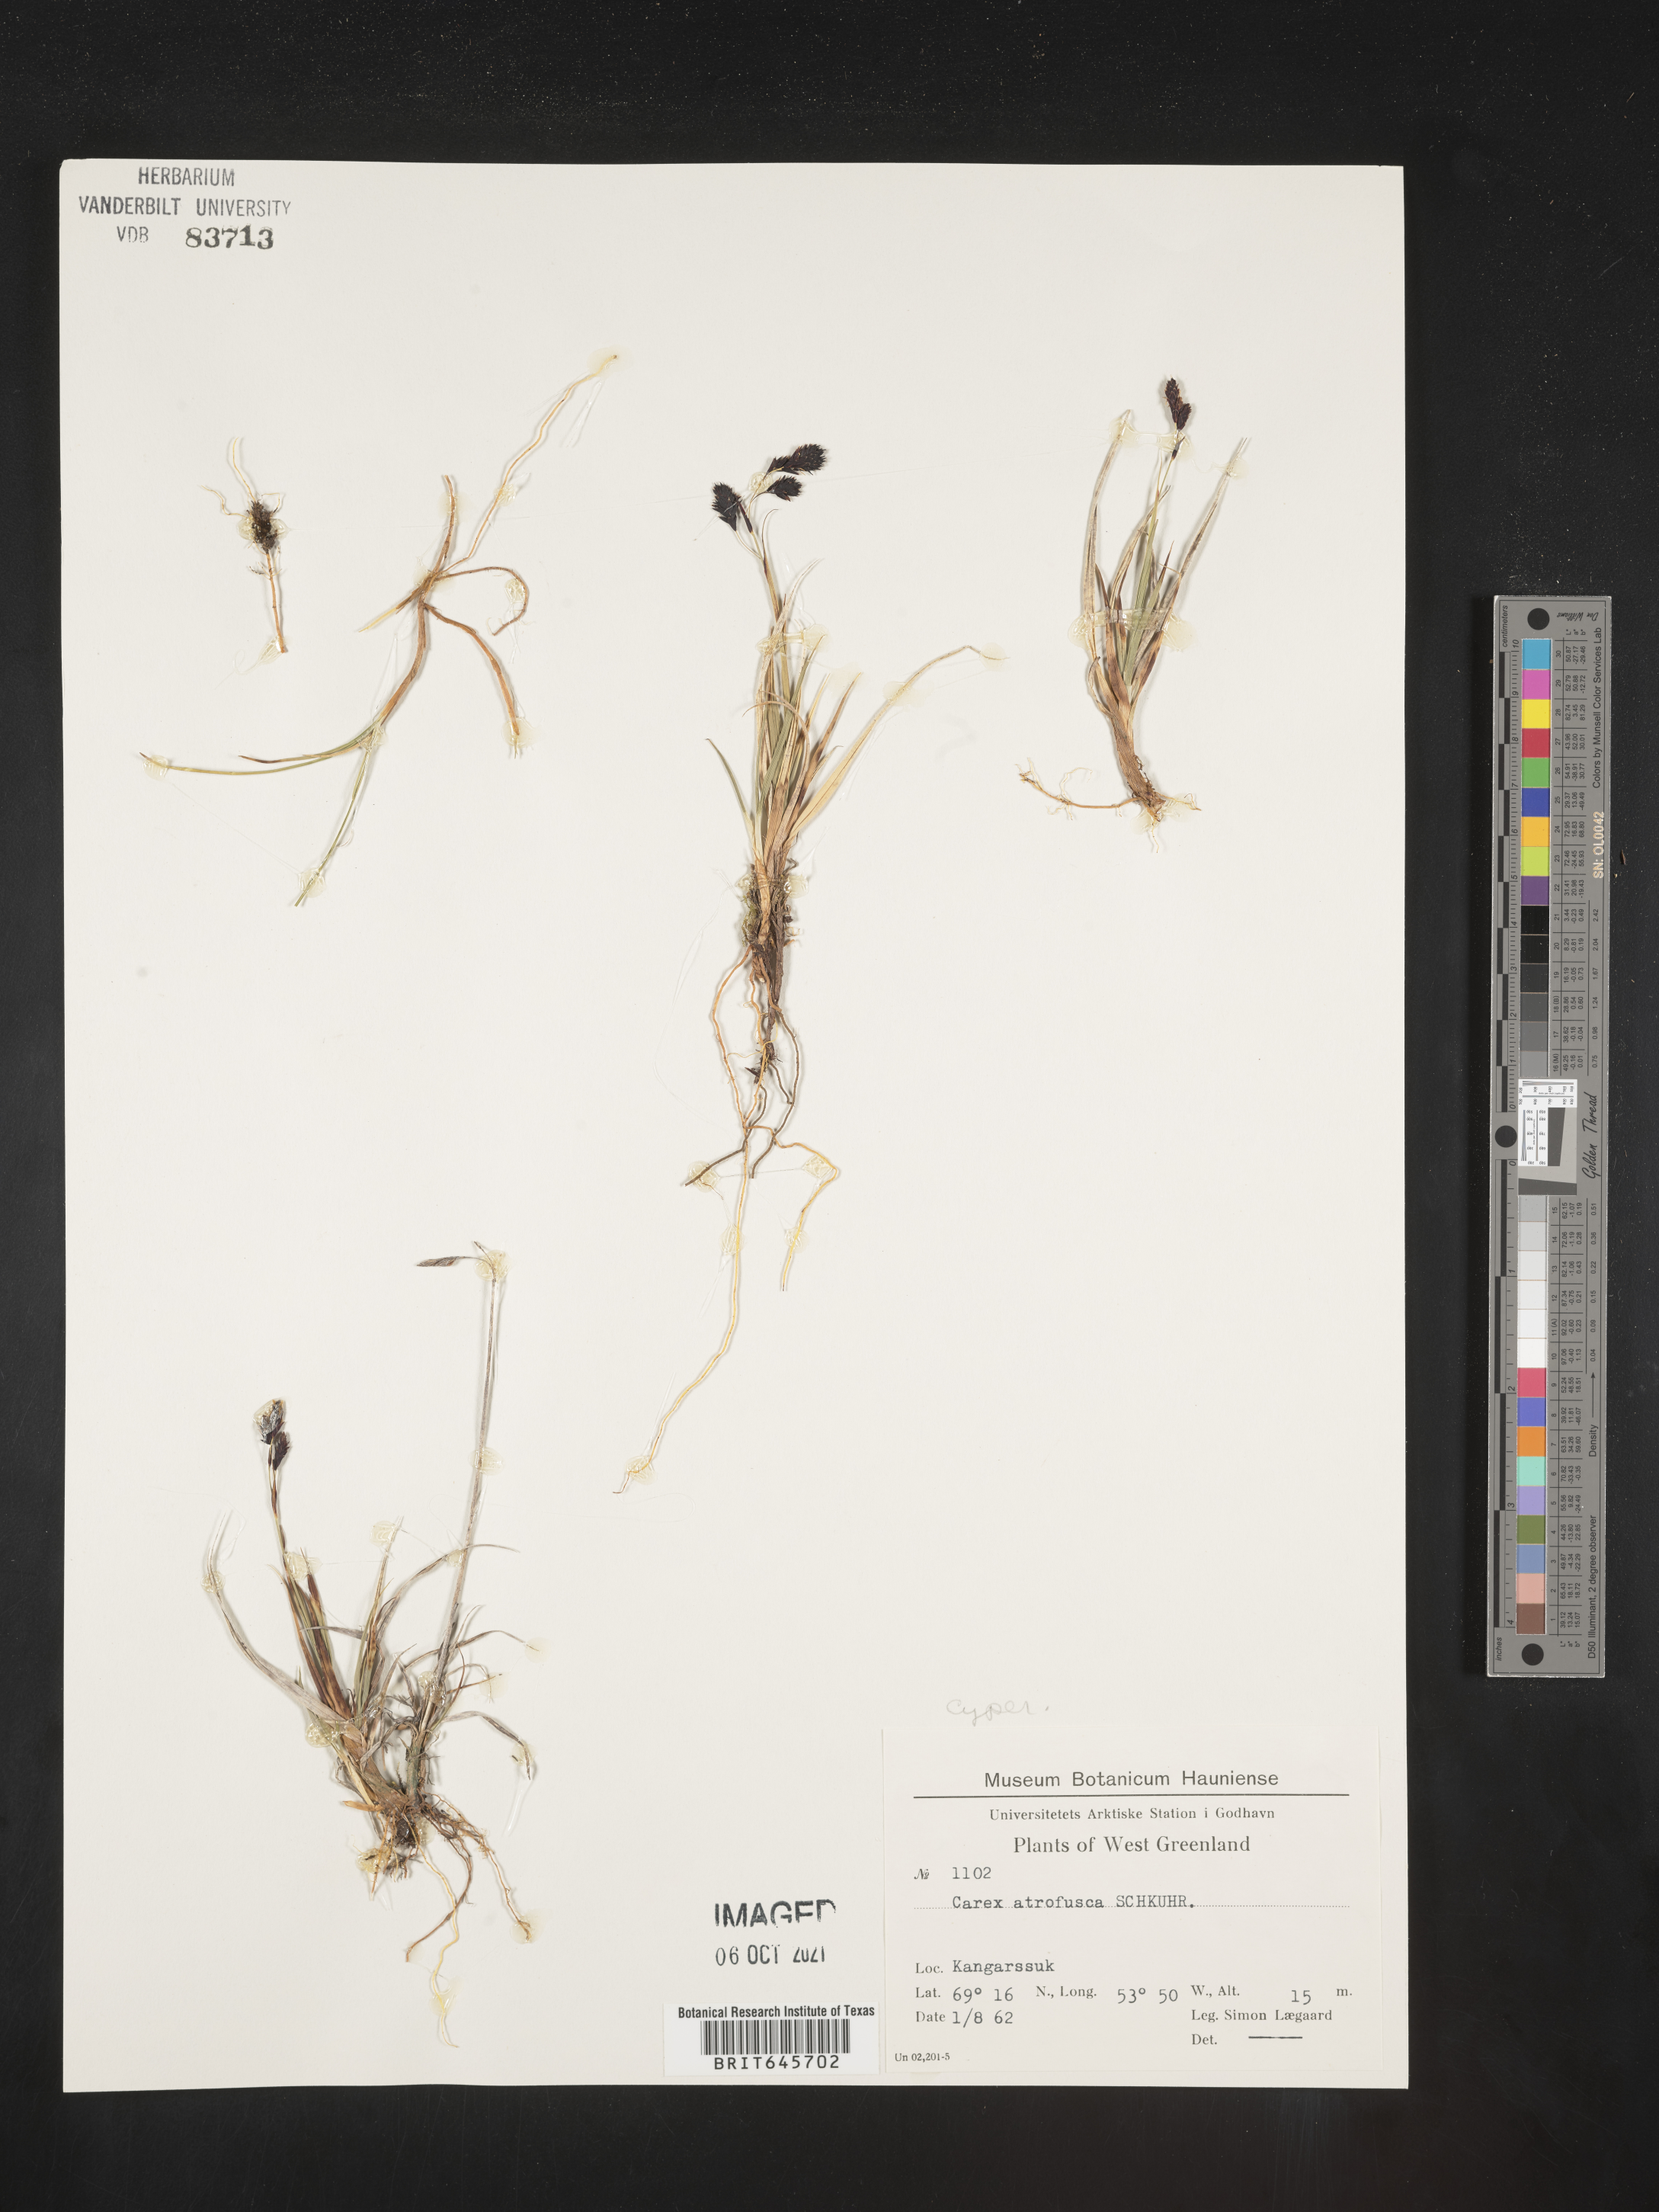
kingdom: Plantae
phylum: Tracheophyta
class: Liliopsida
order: Poales
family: Cyperaceae
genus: Carex
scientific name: Carex pichinchensis
